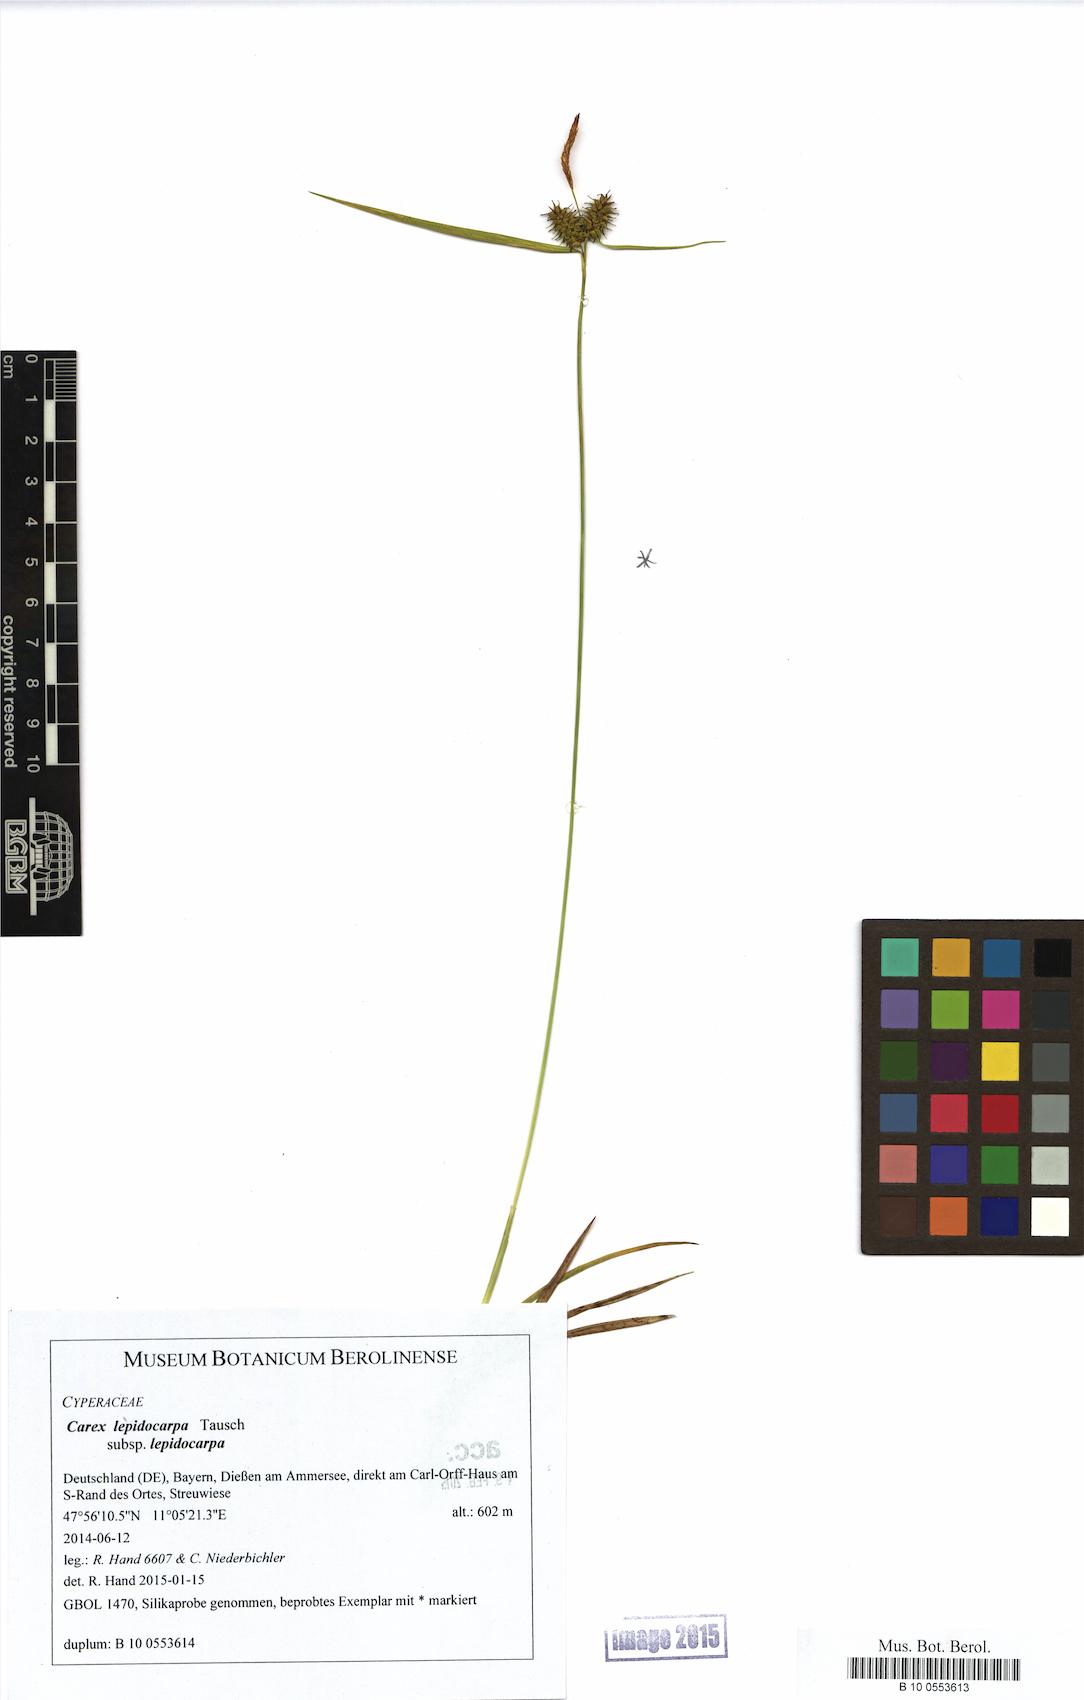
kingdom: Plantae
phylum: Tracheophyta
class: Liliopsida
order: Poales
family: Cyperaceae
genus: Carex
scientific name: Carex lepidocarpa
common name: Long-stalked yellow-sedge
